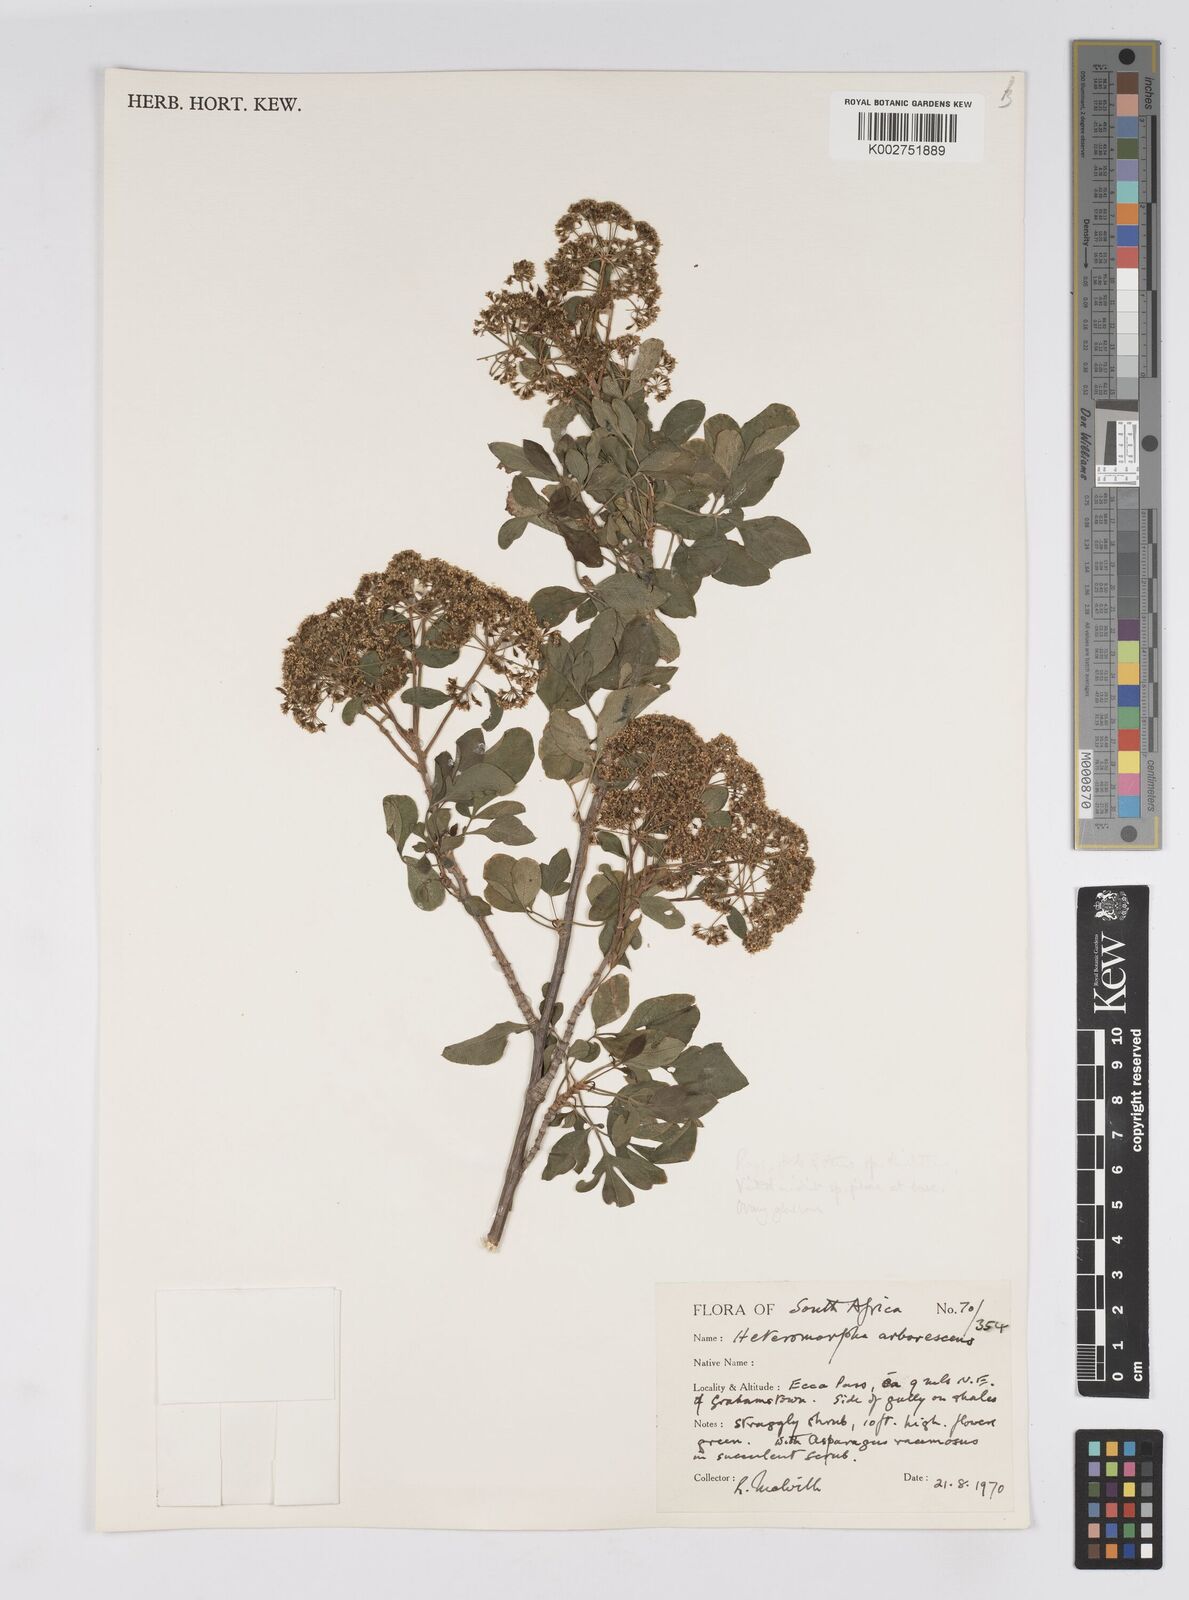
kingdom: Plantae
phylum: Tracheophyta
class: Magnoliopsida
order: Apiales
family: Apiaceae
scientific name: Apiaceae
